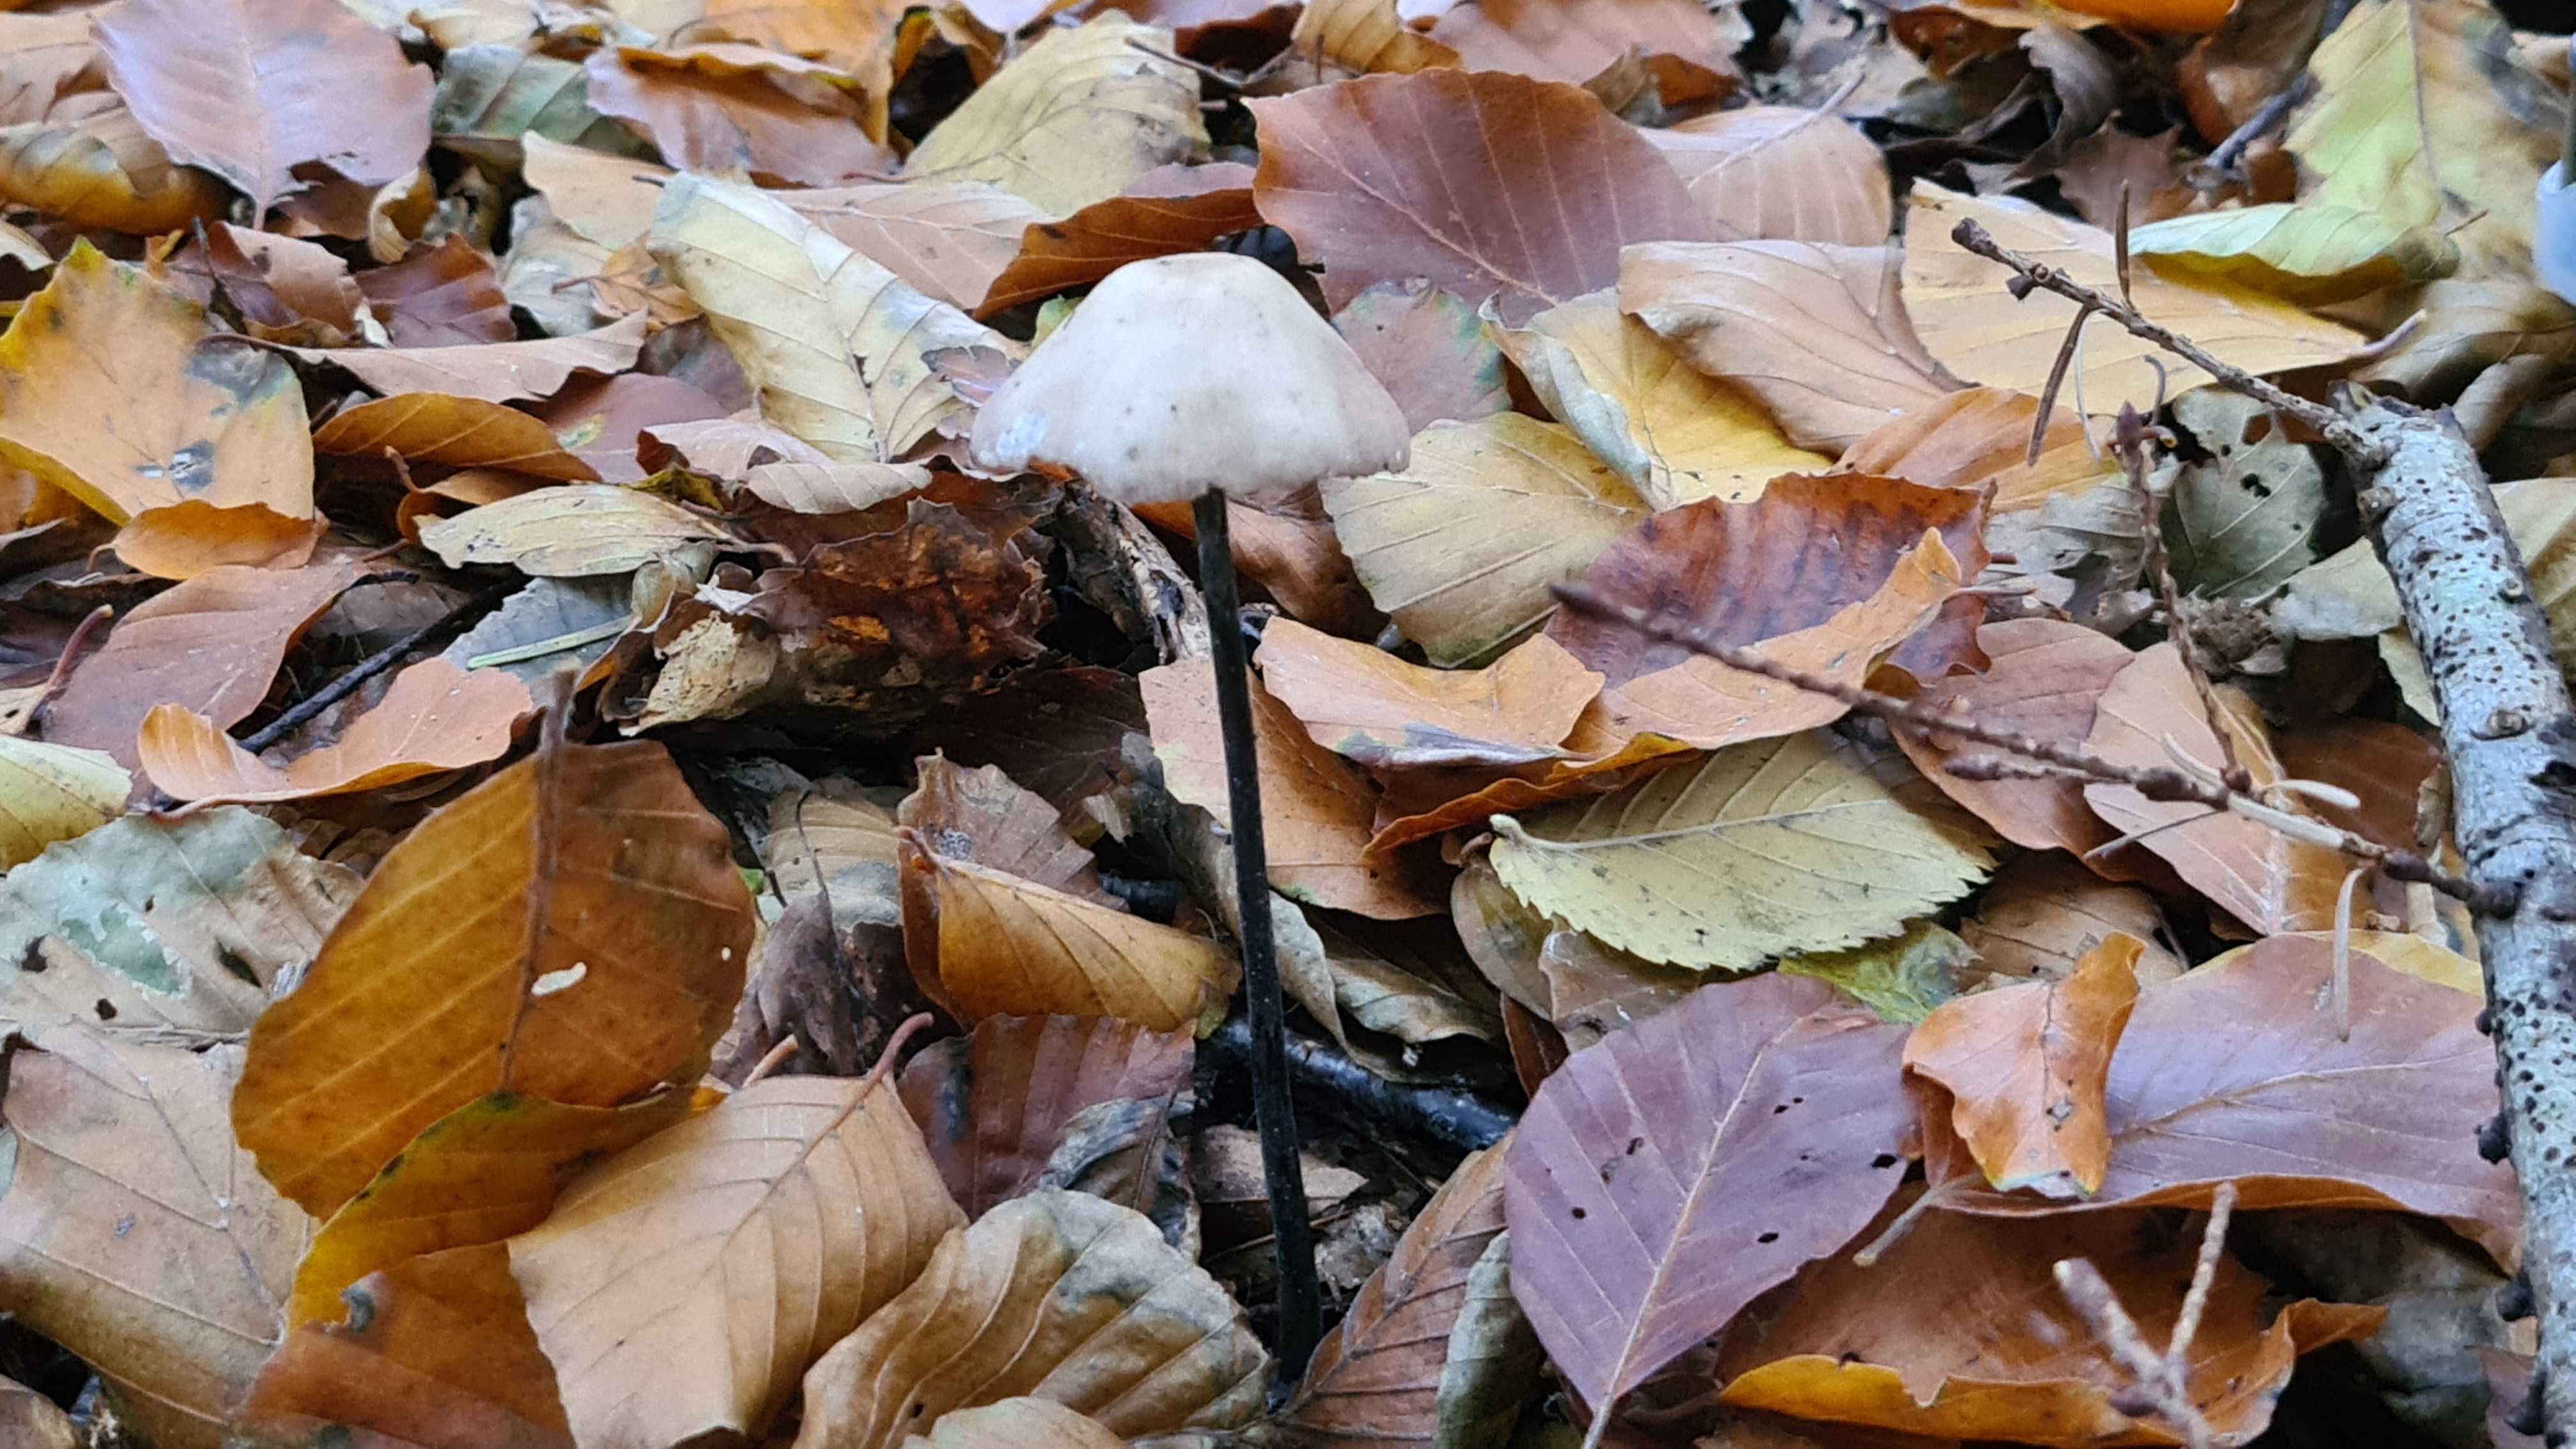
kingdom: Fungi
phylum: Basidiomycota
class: Agaricomycetes
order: Agaricales
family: Omphalotaceae
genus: Mycetinis
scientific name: Mycetinis alliaceus
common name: stor løghat
